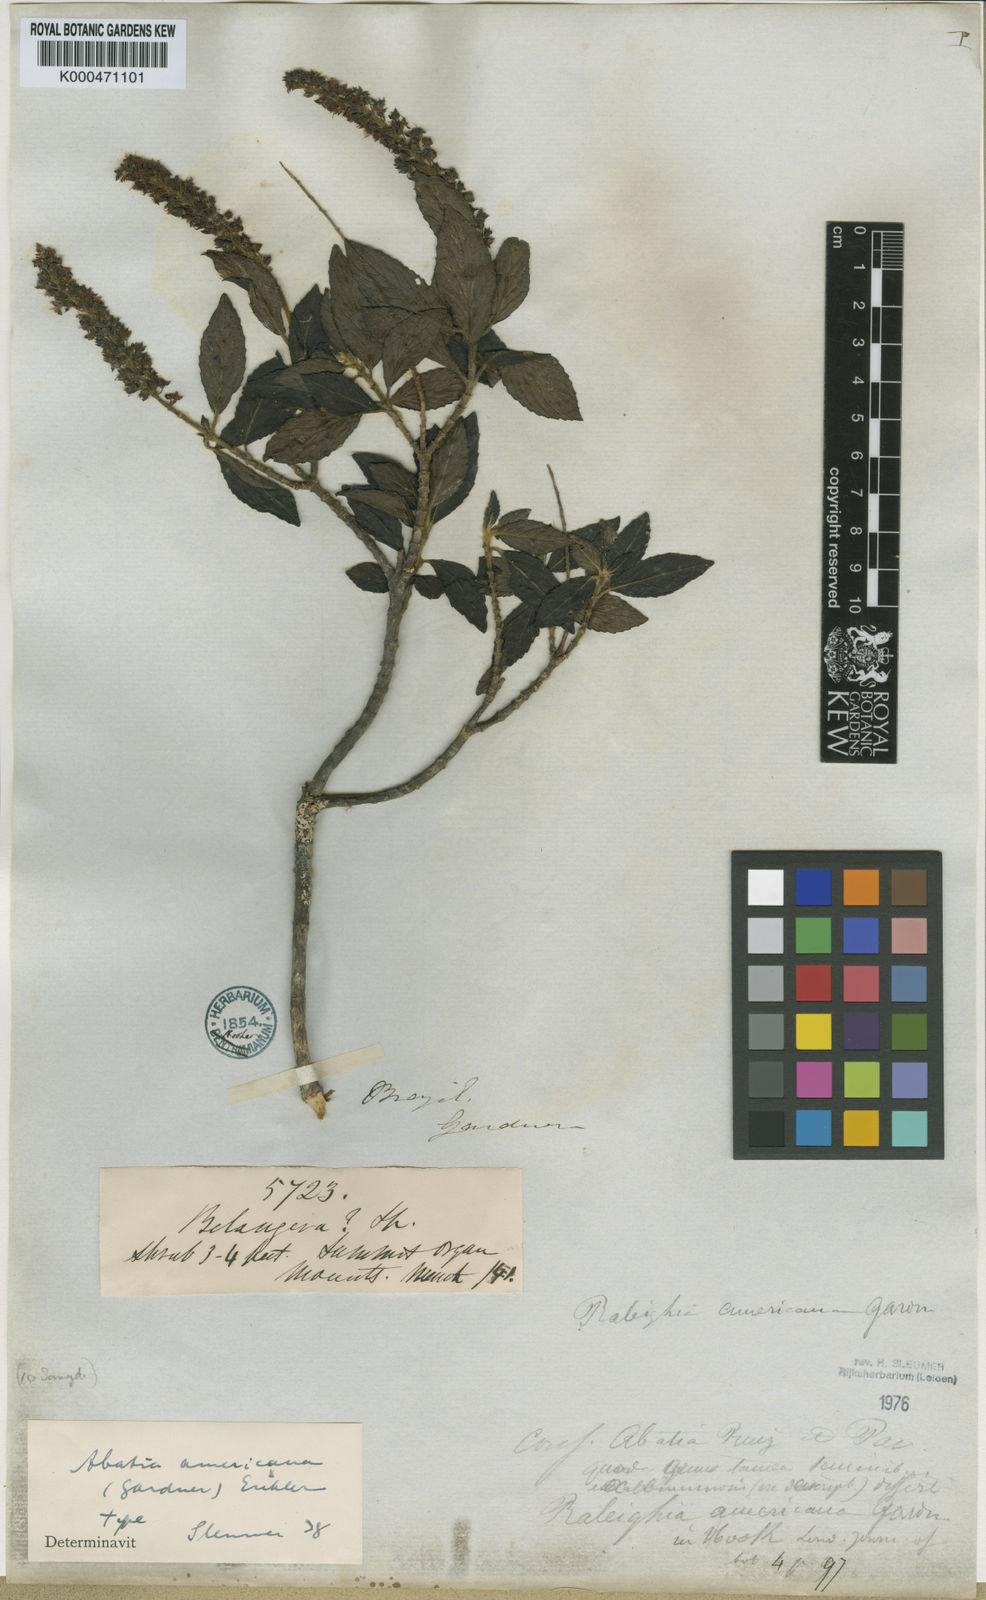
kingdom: Plantae
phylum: Tracheophyta
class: Magnoliopsida
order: Malpighiales
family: Salicaceae
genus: Abatia
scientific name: Abatia americana
